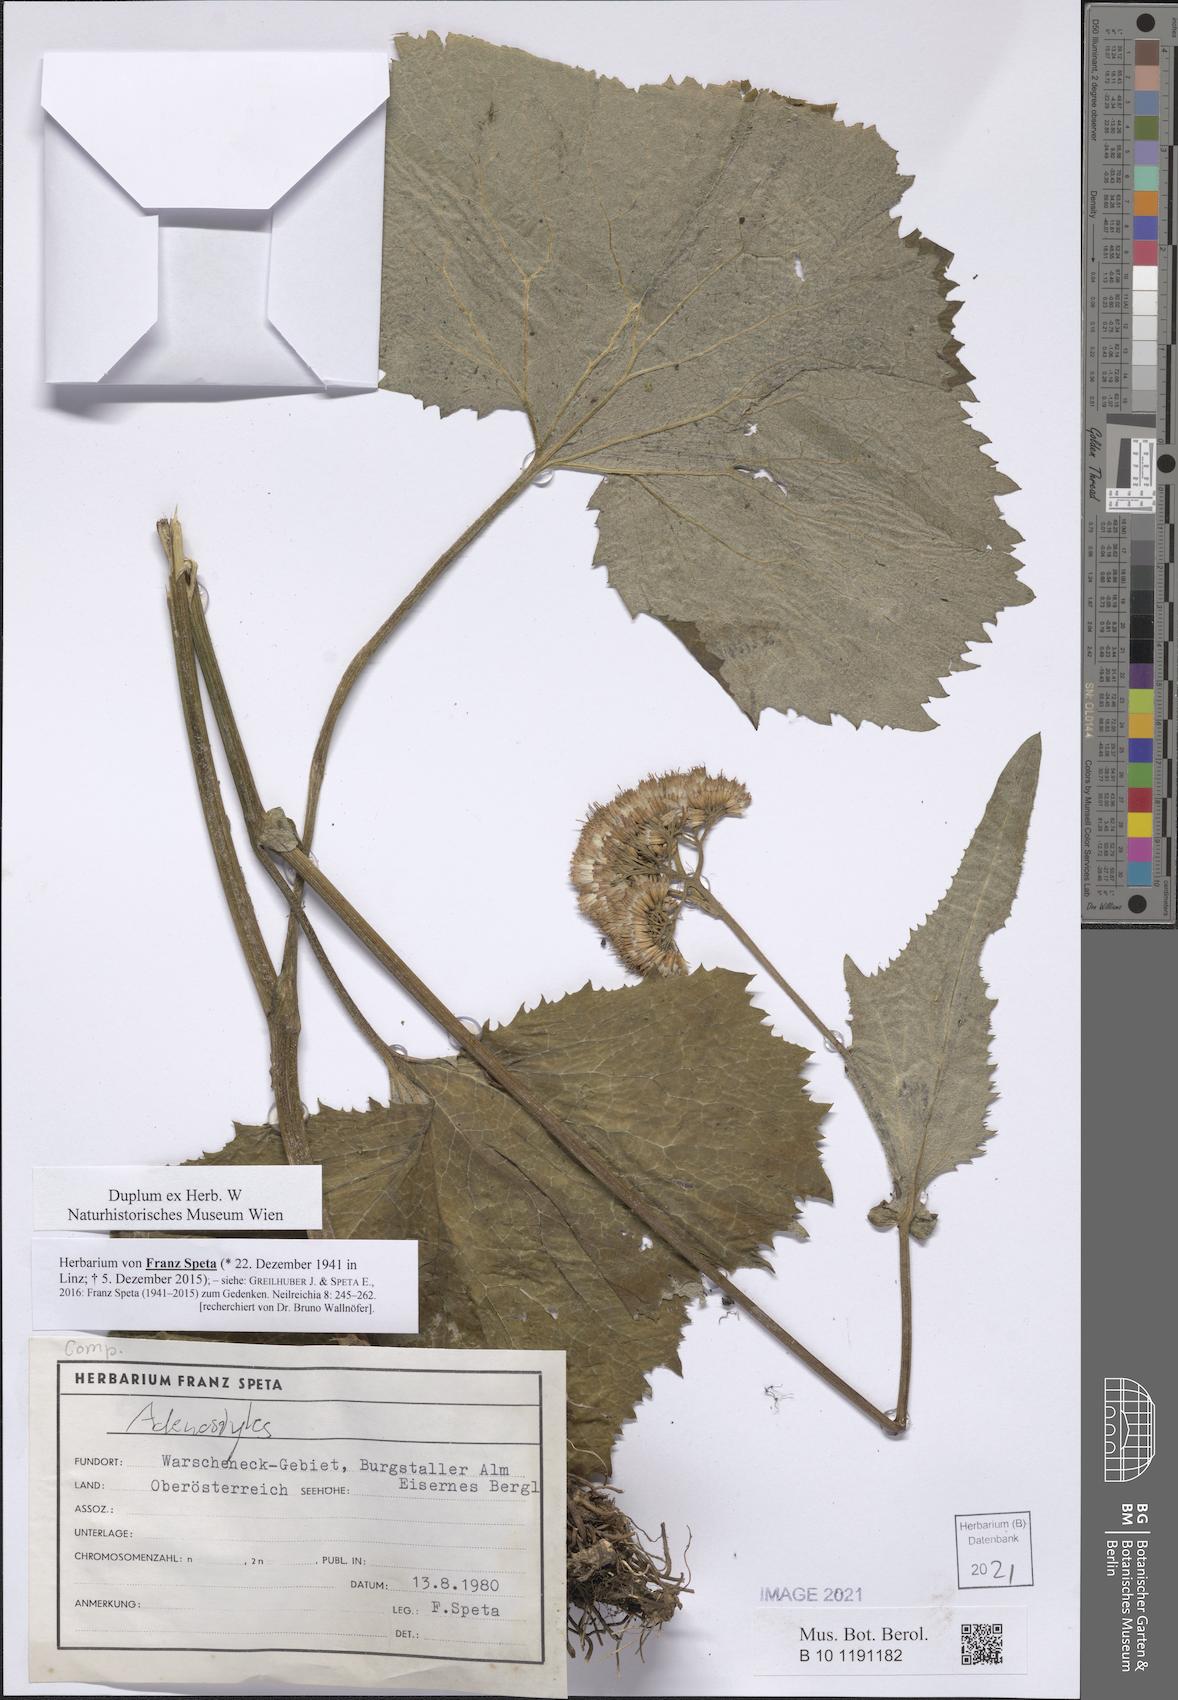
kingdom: Plantae
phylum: Tracheophyta
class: Magnoliopsida
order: Asterales
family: Asteraceae
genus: Adenostyles
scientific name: Adenostyles
